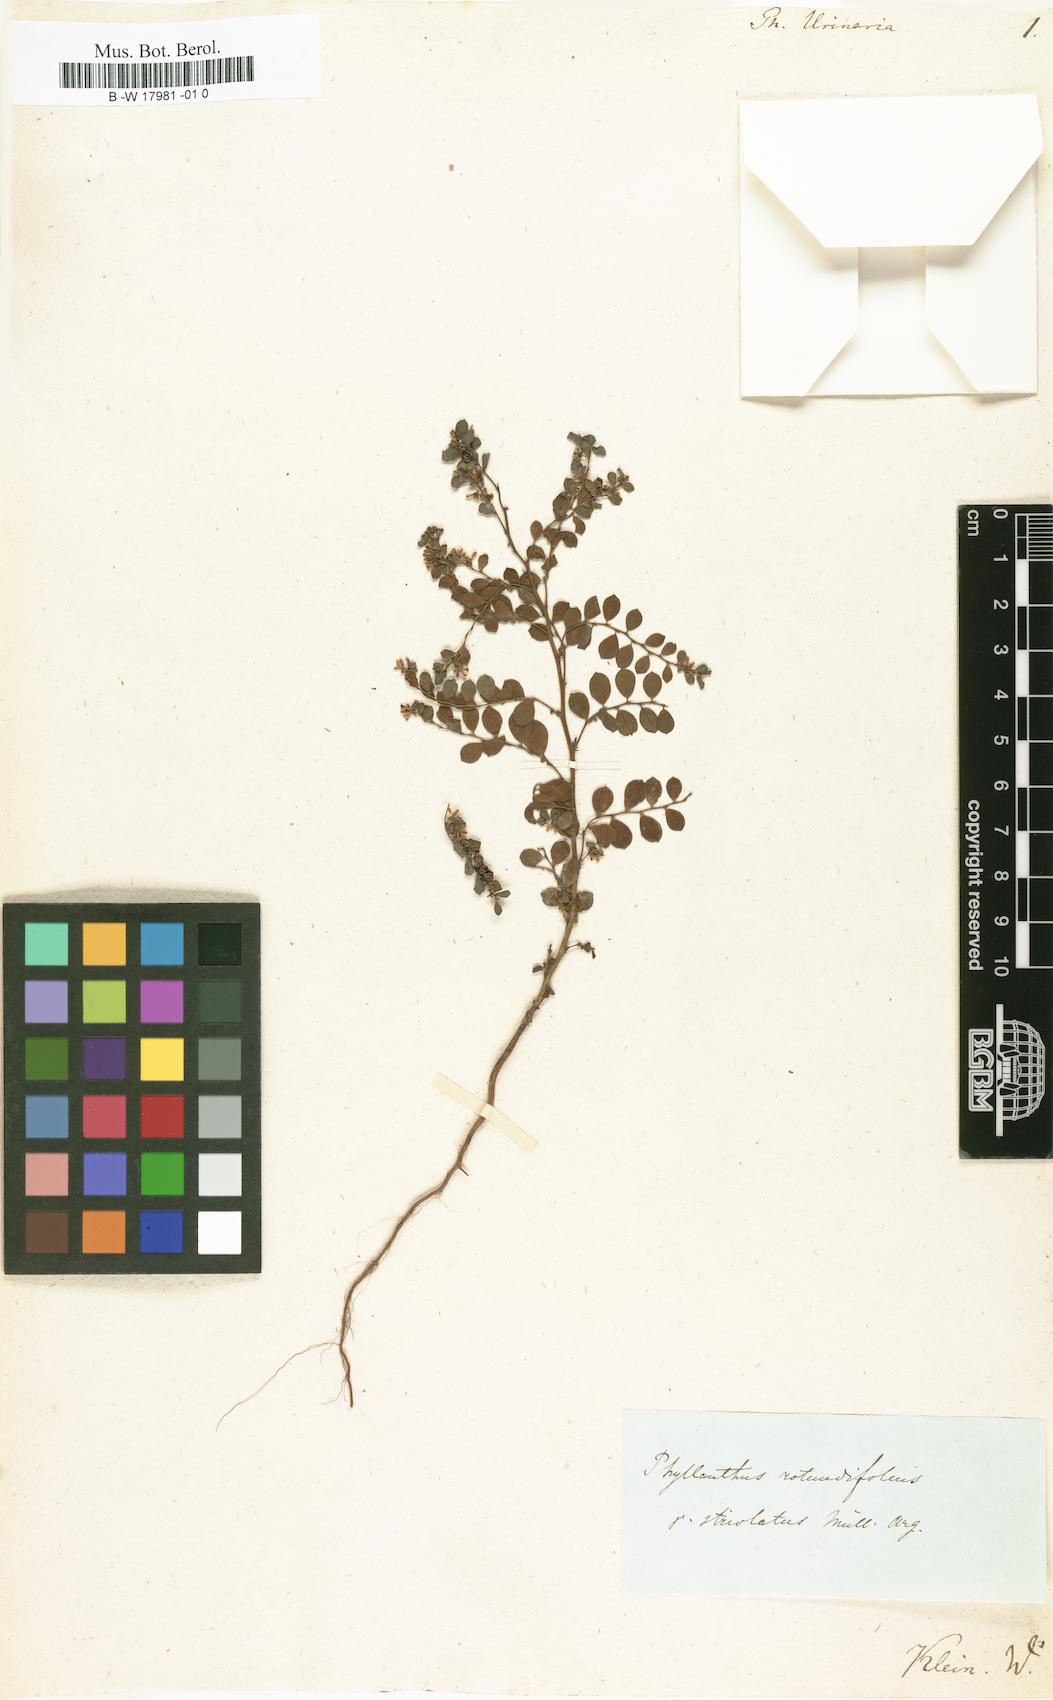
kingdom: Plantae
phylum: Tracheophyta
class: Magnoliopsida
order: Malpighiales
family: Phyllanthaceae
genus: Phyllanthus
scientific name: Phyllanthus urinaria
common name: Chamber bitter
